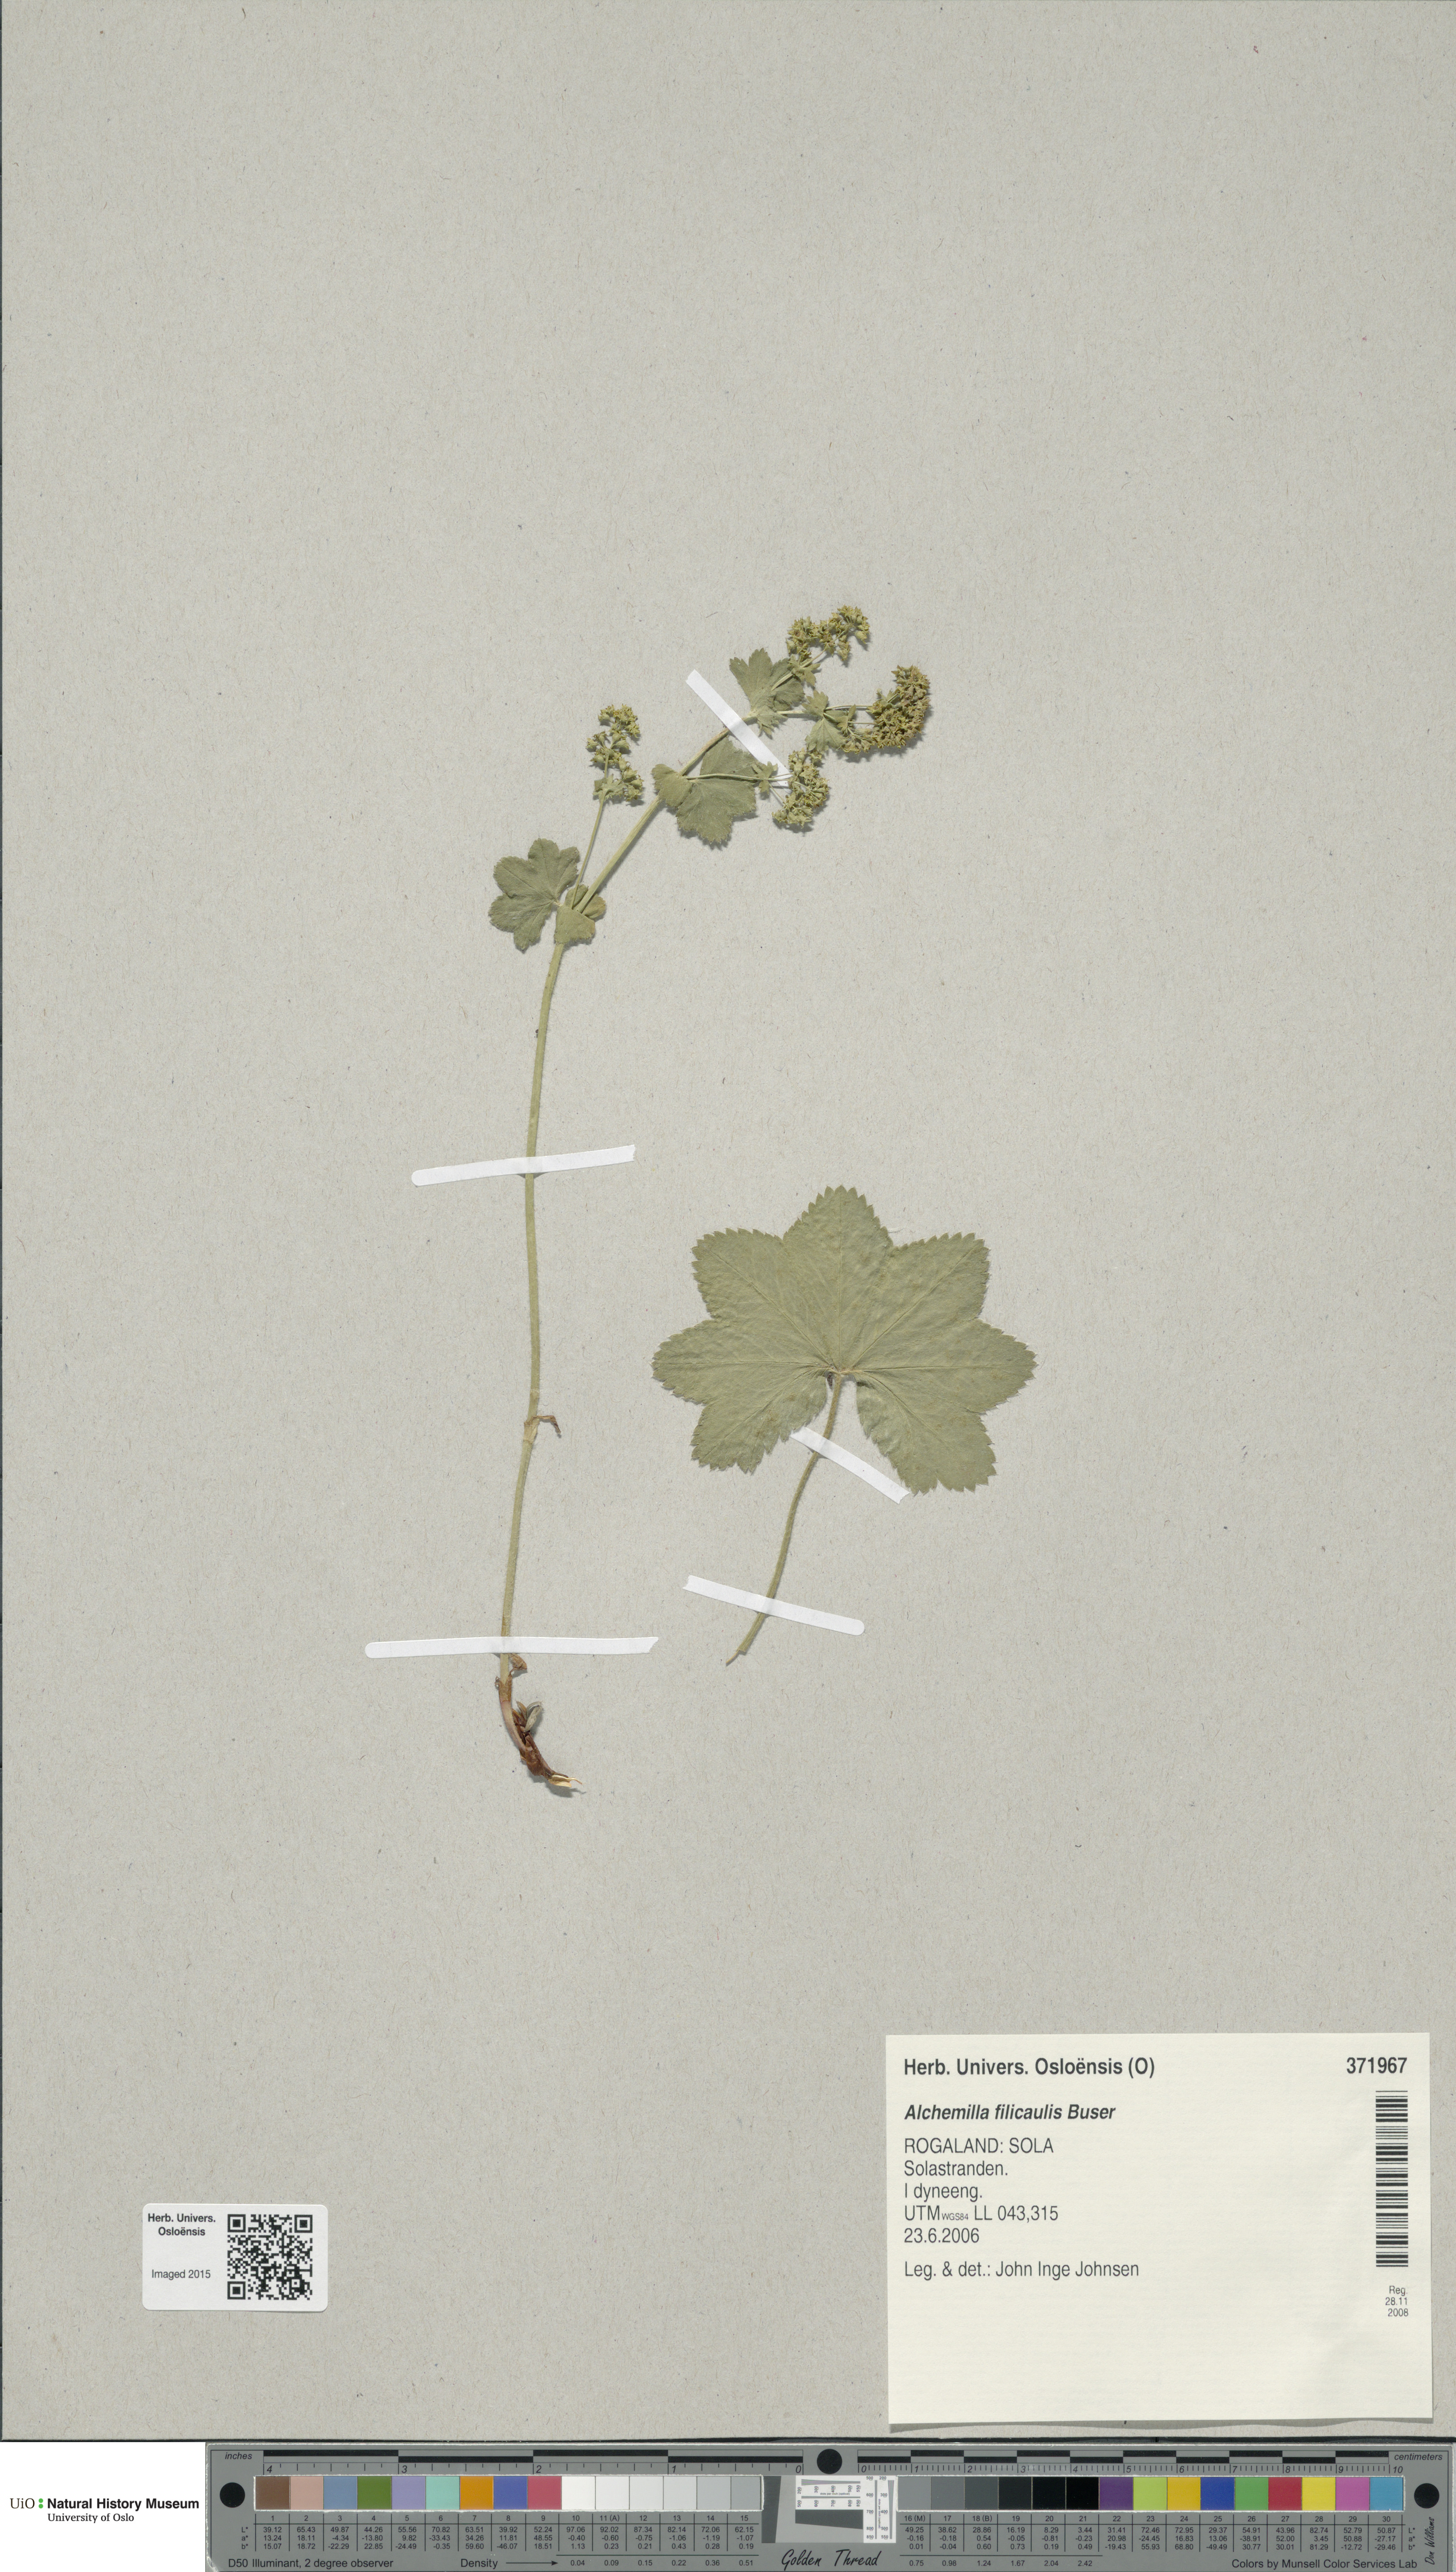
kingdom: Plantae
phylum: Tracheophyta
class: Magnoliopsida
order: Rosales
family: Rosaceae
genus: Alchemilla
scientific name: Alchemilla filicaulis
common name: Hairy lady's-mantle
